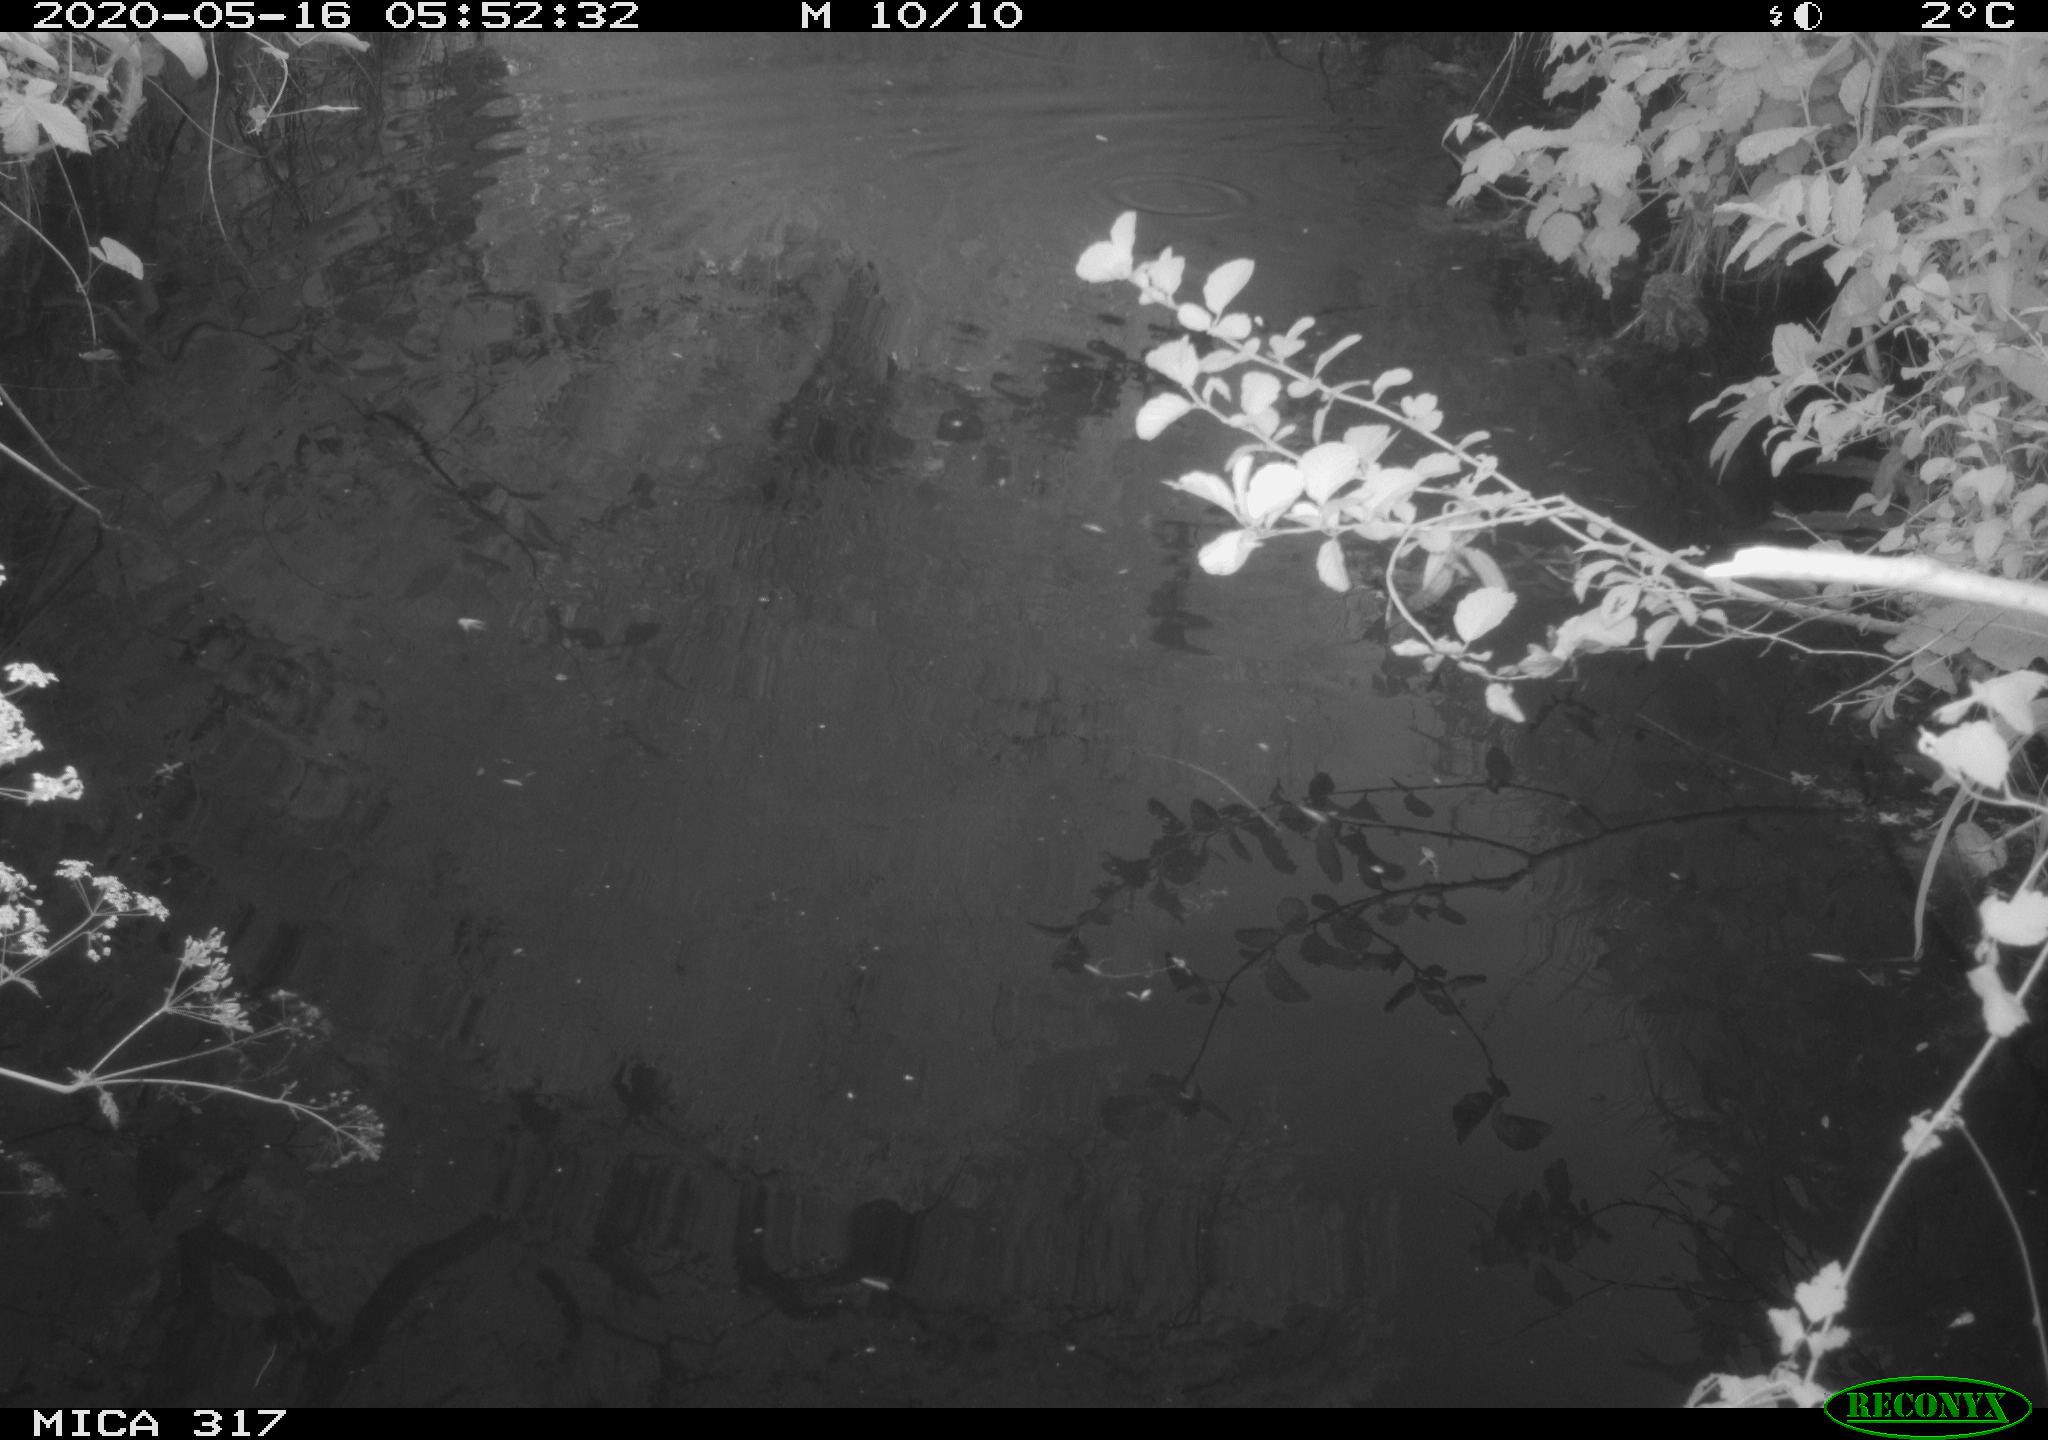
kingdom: Animalia
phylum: Chordata
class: Aves
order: Gruiformes
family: Rallidae
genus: Gallinula
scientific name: Gallinula chloropus
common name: Common moorhen
